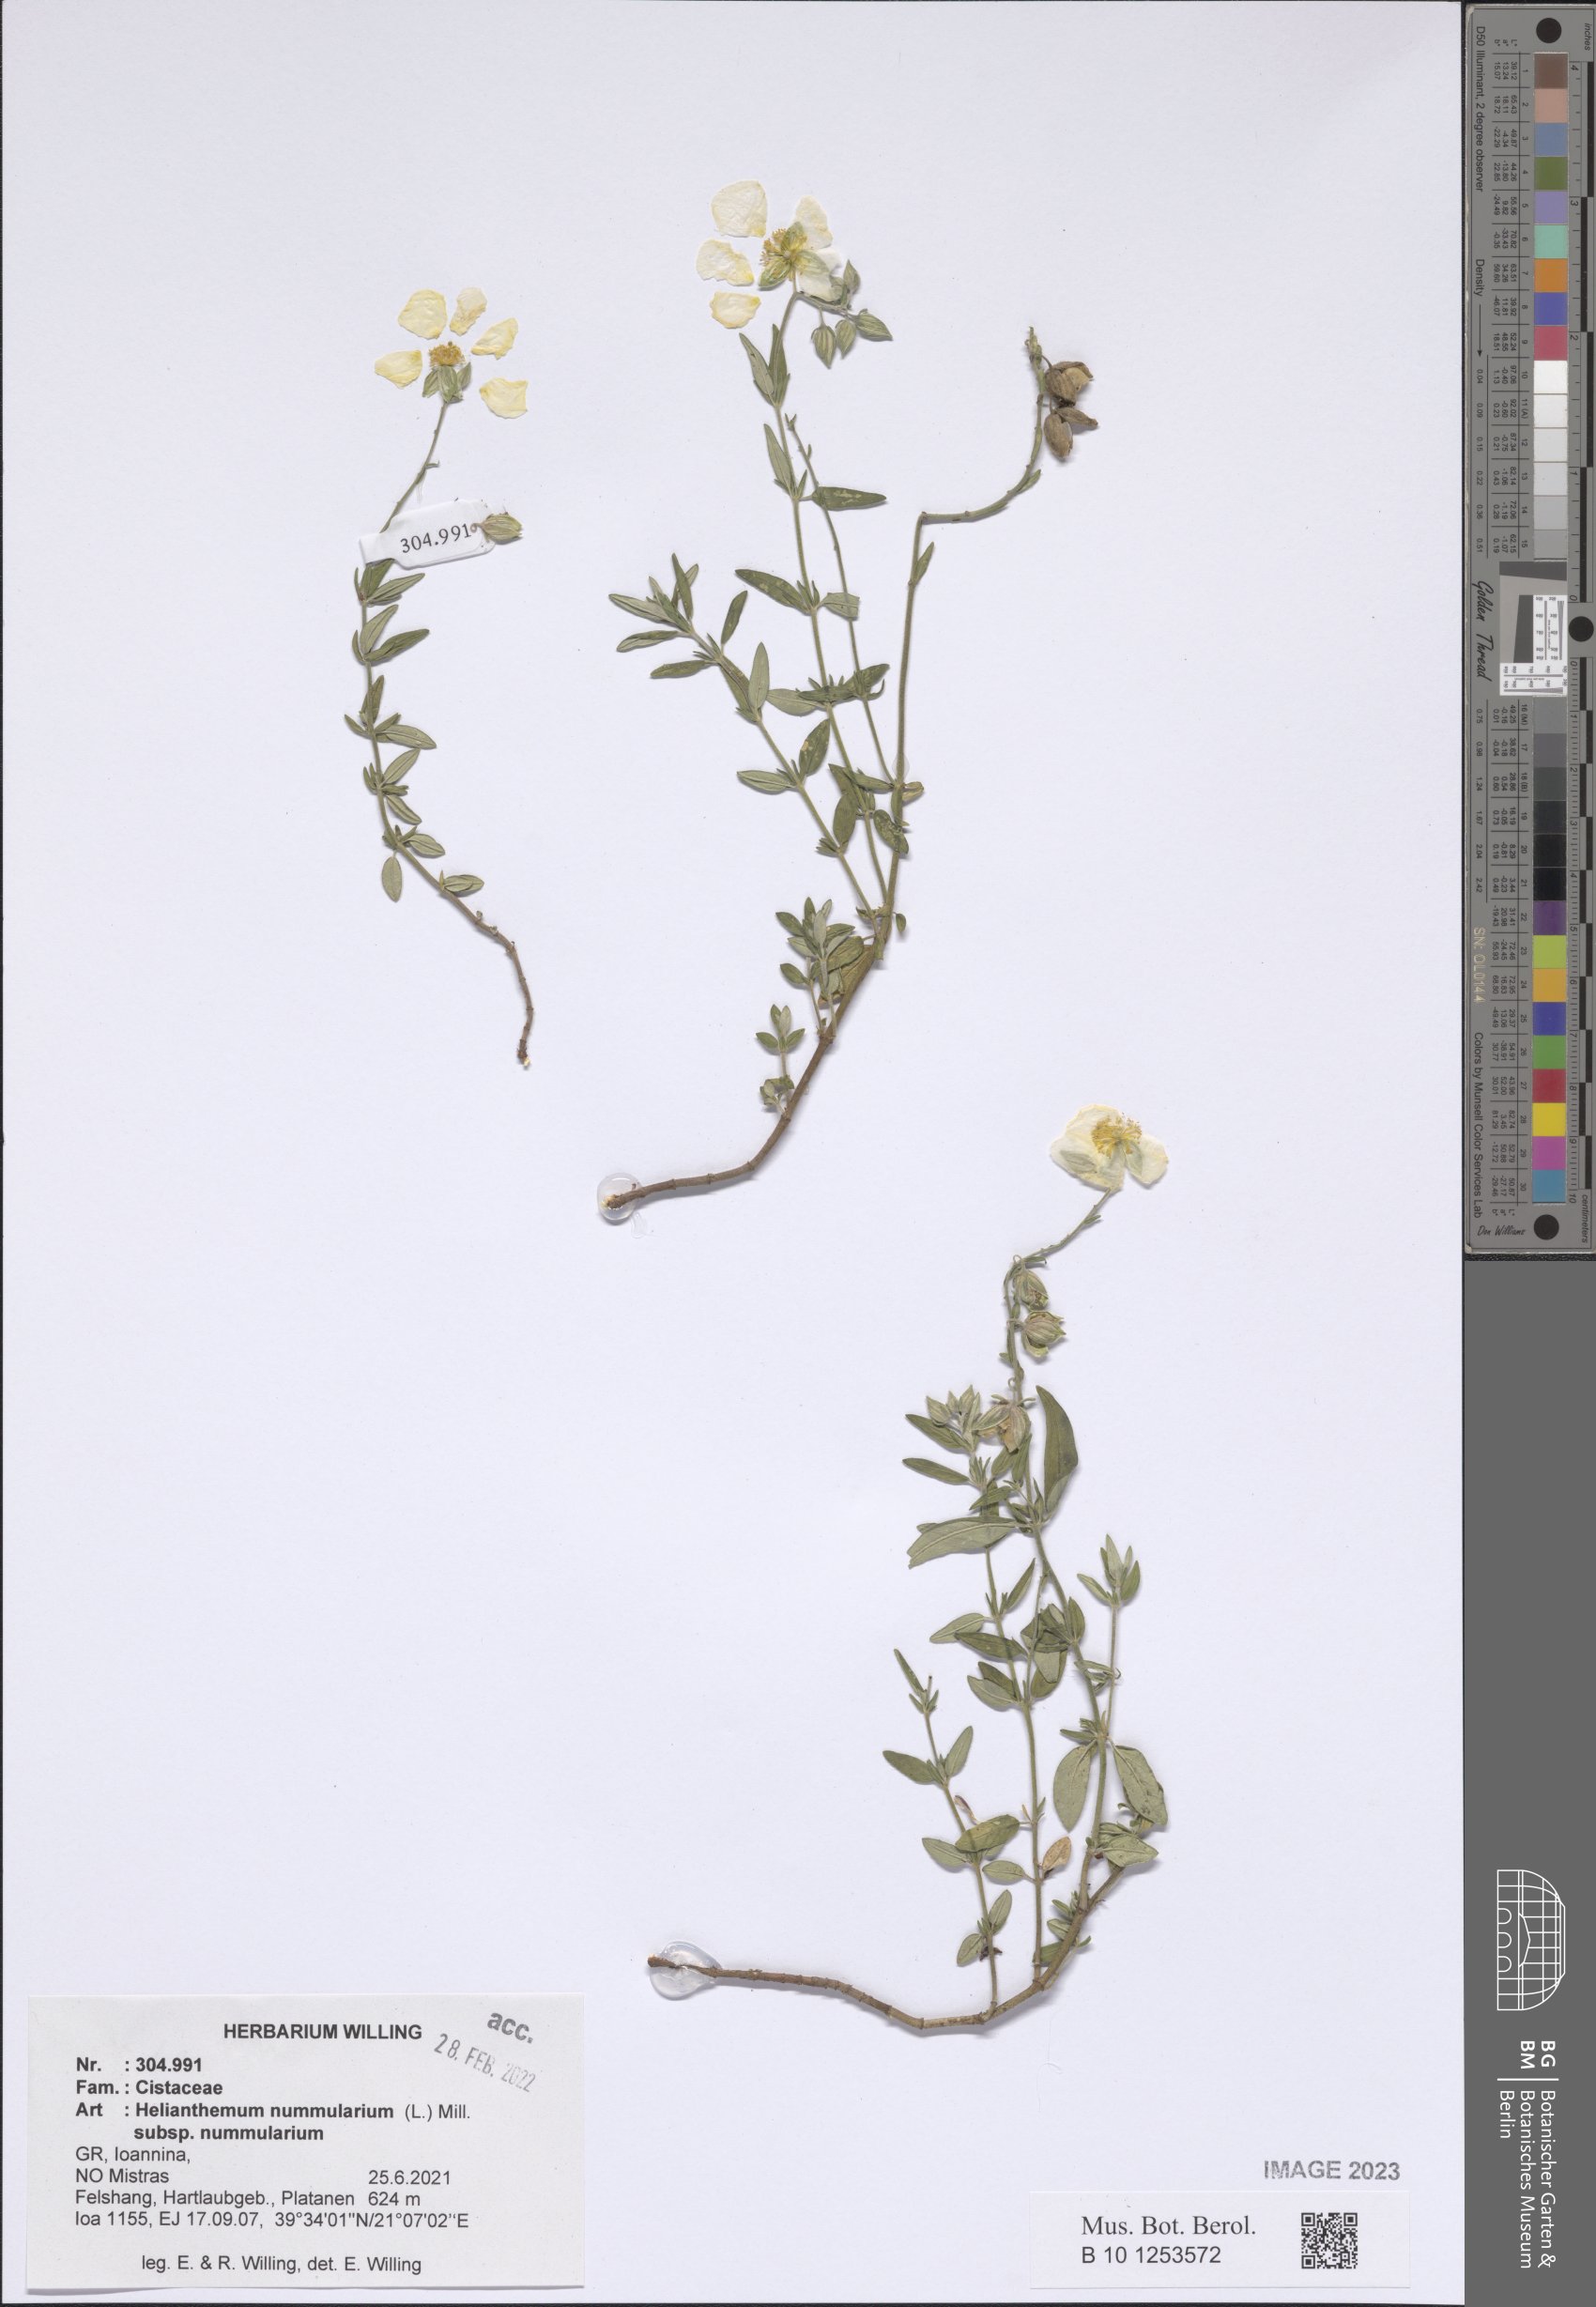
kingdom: Plantae
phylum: Tracheophyta
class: Magnoliopsida
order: Malvales
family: Cistaceae
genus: Helianthemum
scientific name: Helianthemum nummularium
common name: Common rock-rose
